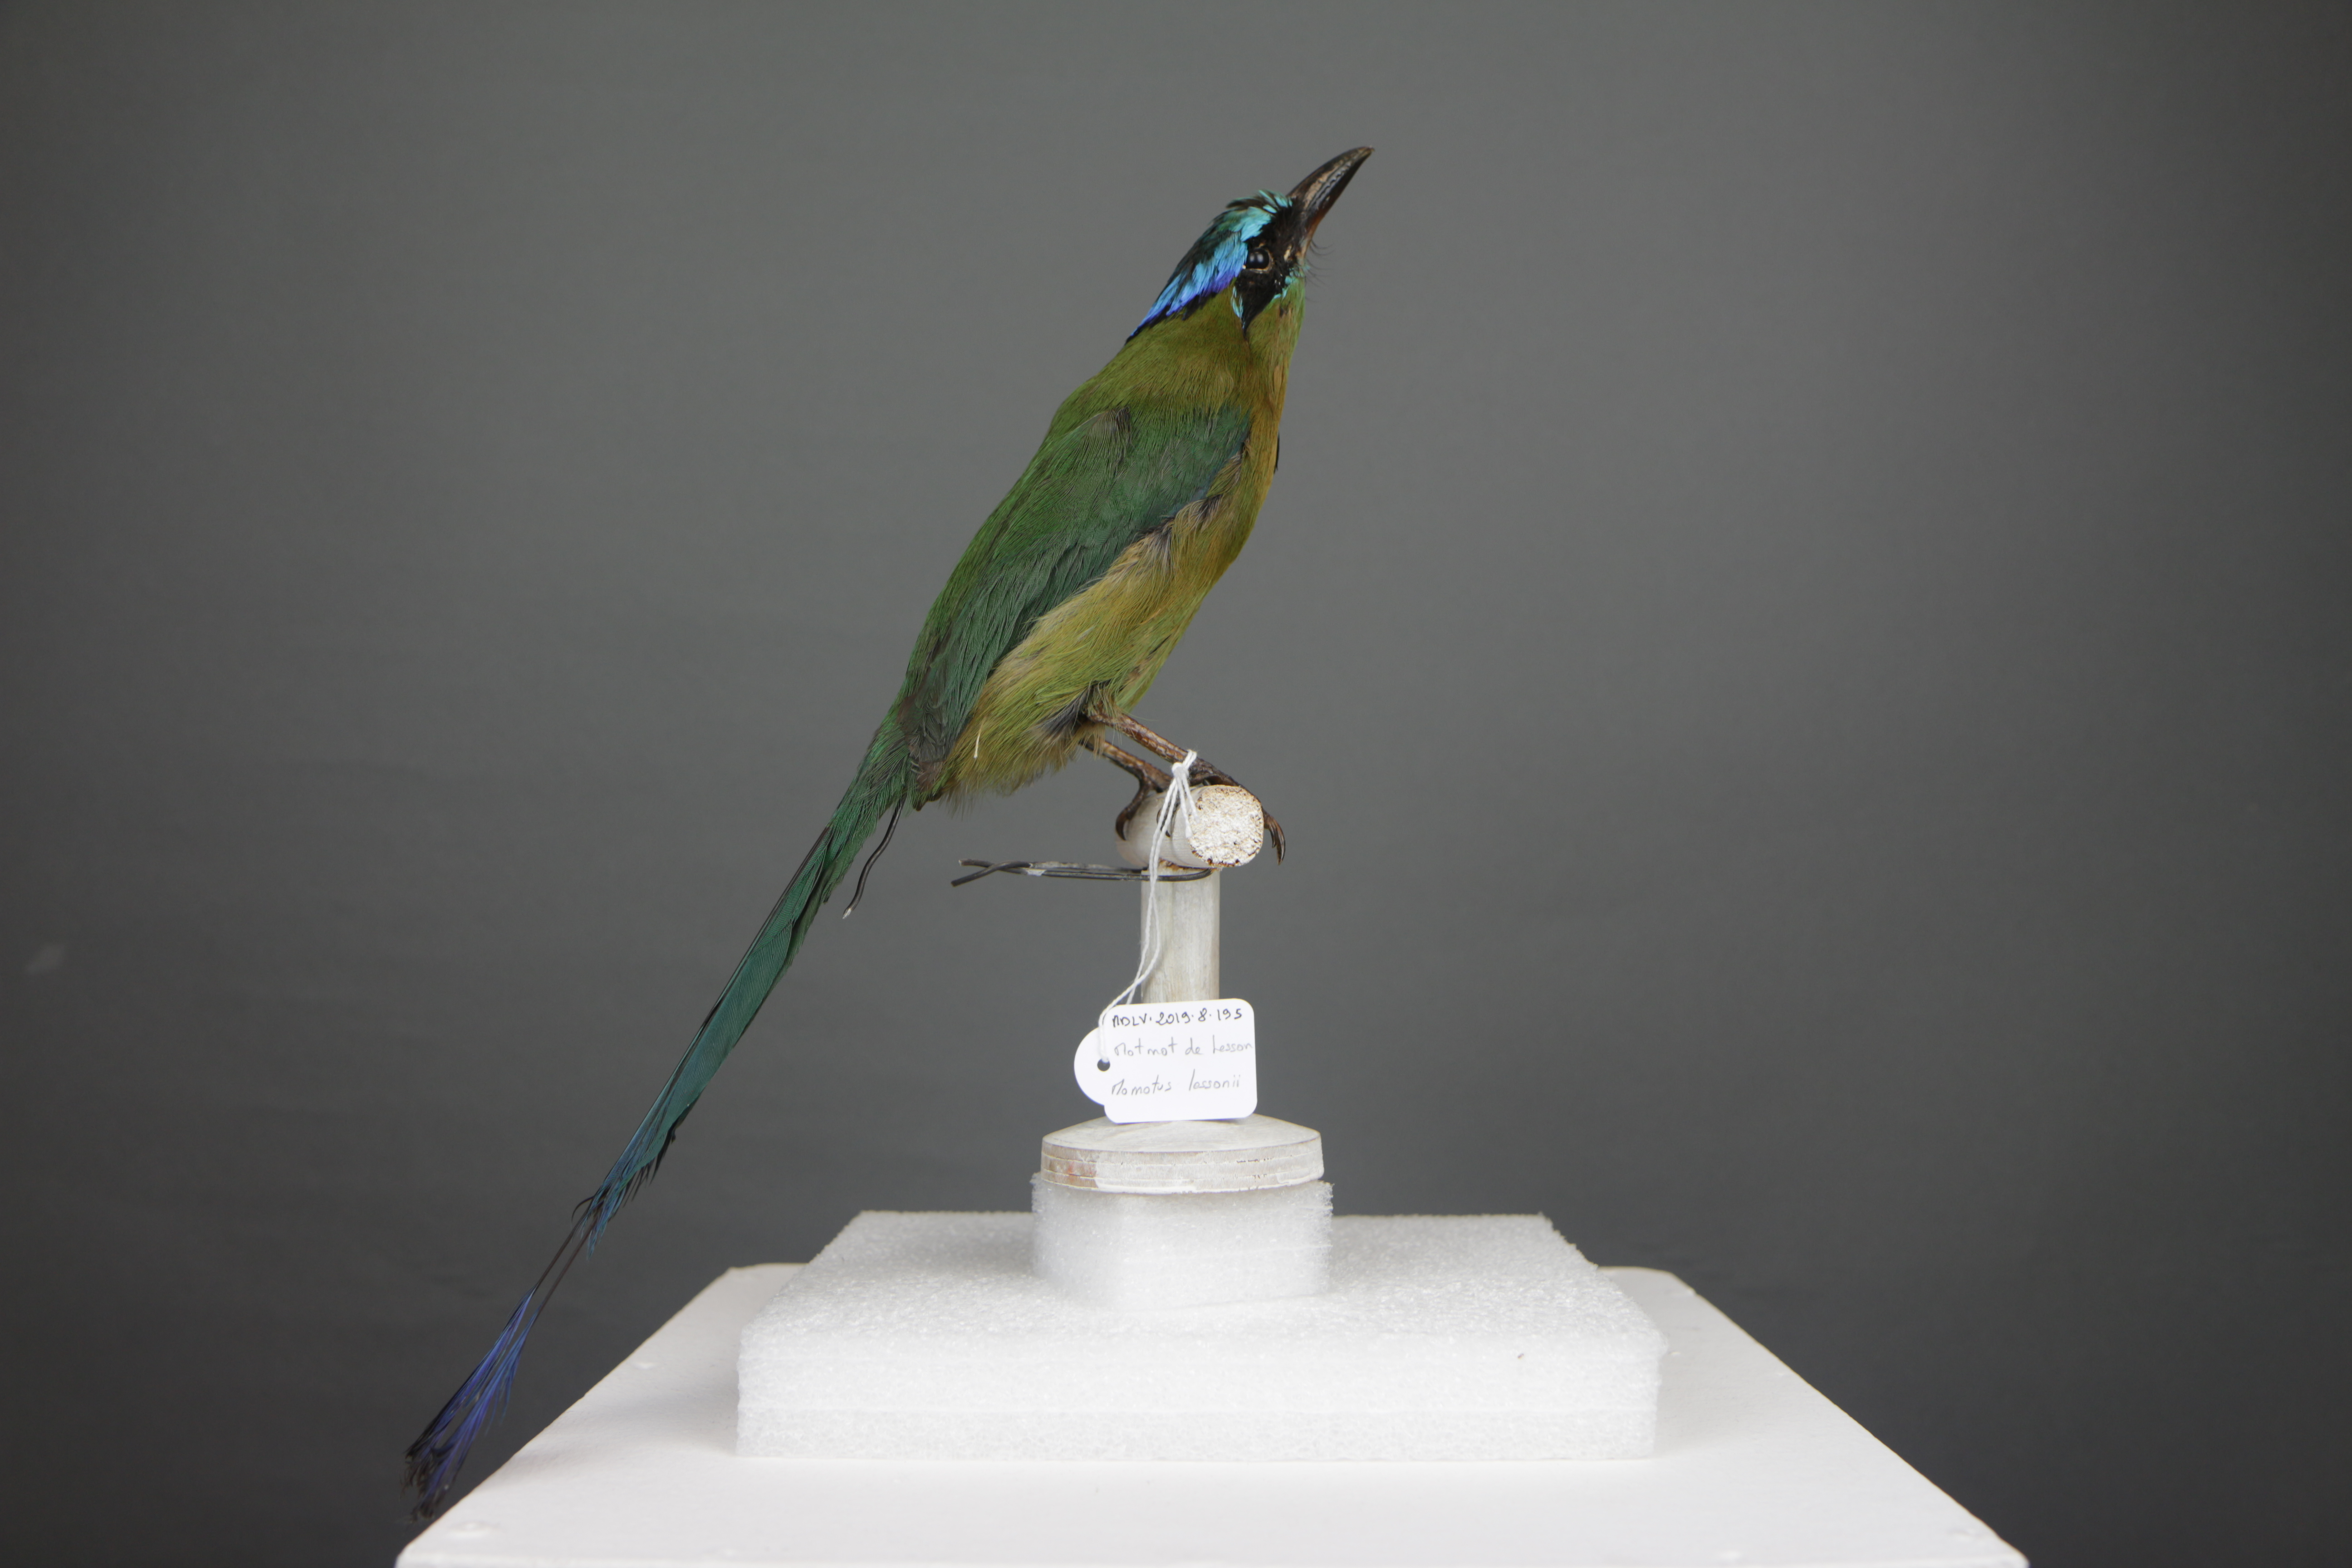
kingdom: Animalia
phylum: Chordata
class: Aves
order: Coraciiformes
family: Momotidae
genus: Momotus
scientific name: Momotus lessonii
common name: Lesson's motmot
